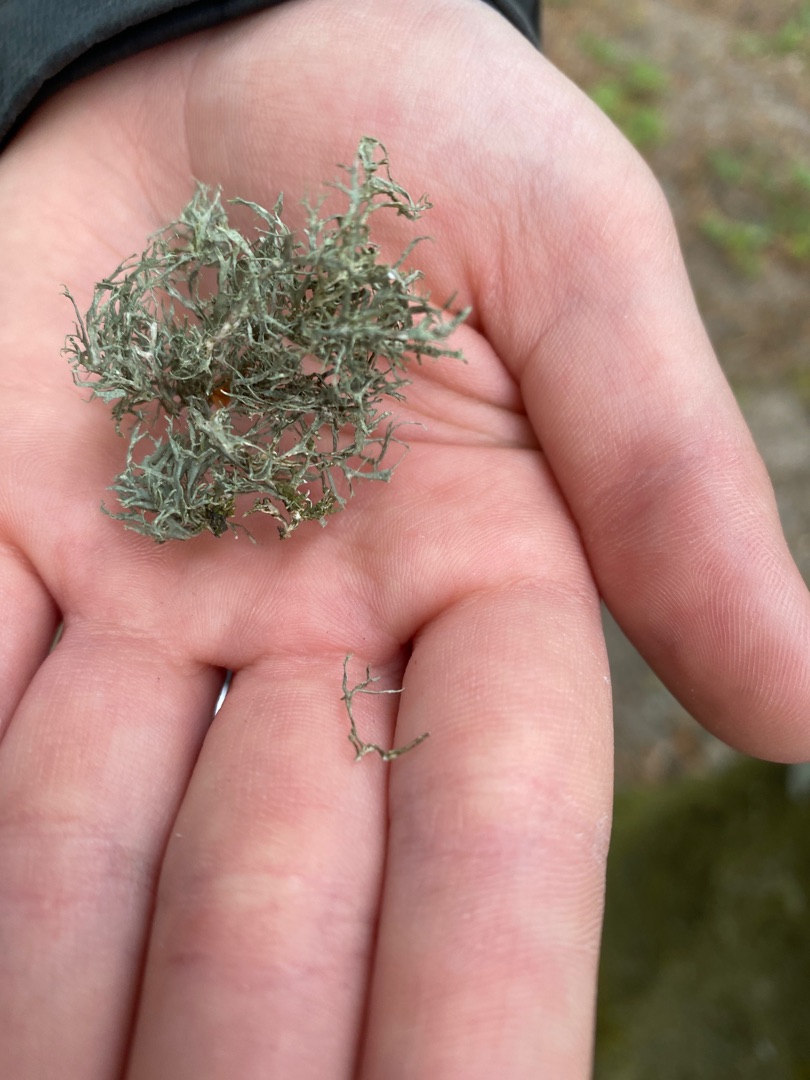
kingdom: Fungi
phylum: Ascomycota
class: Lecanoromycetes
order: Lecanorales
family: Ramalinaceae
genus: Ramalina
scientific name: Ramalina farinacea
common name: Melet grenlav
